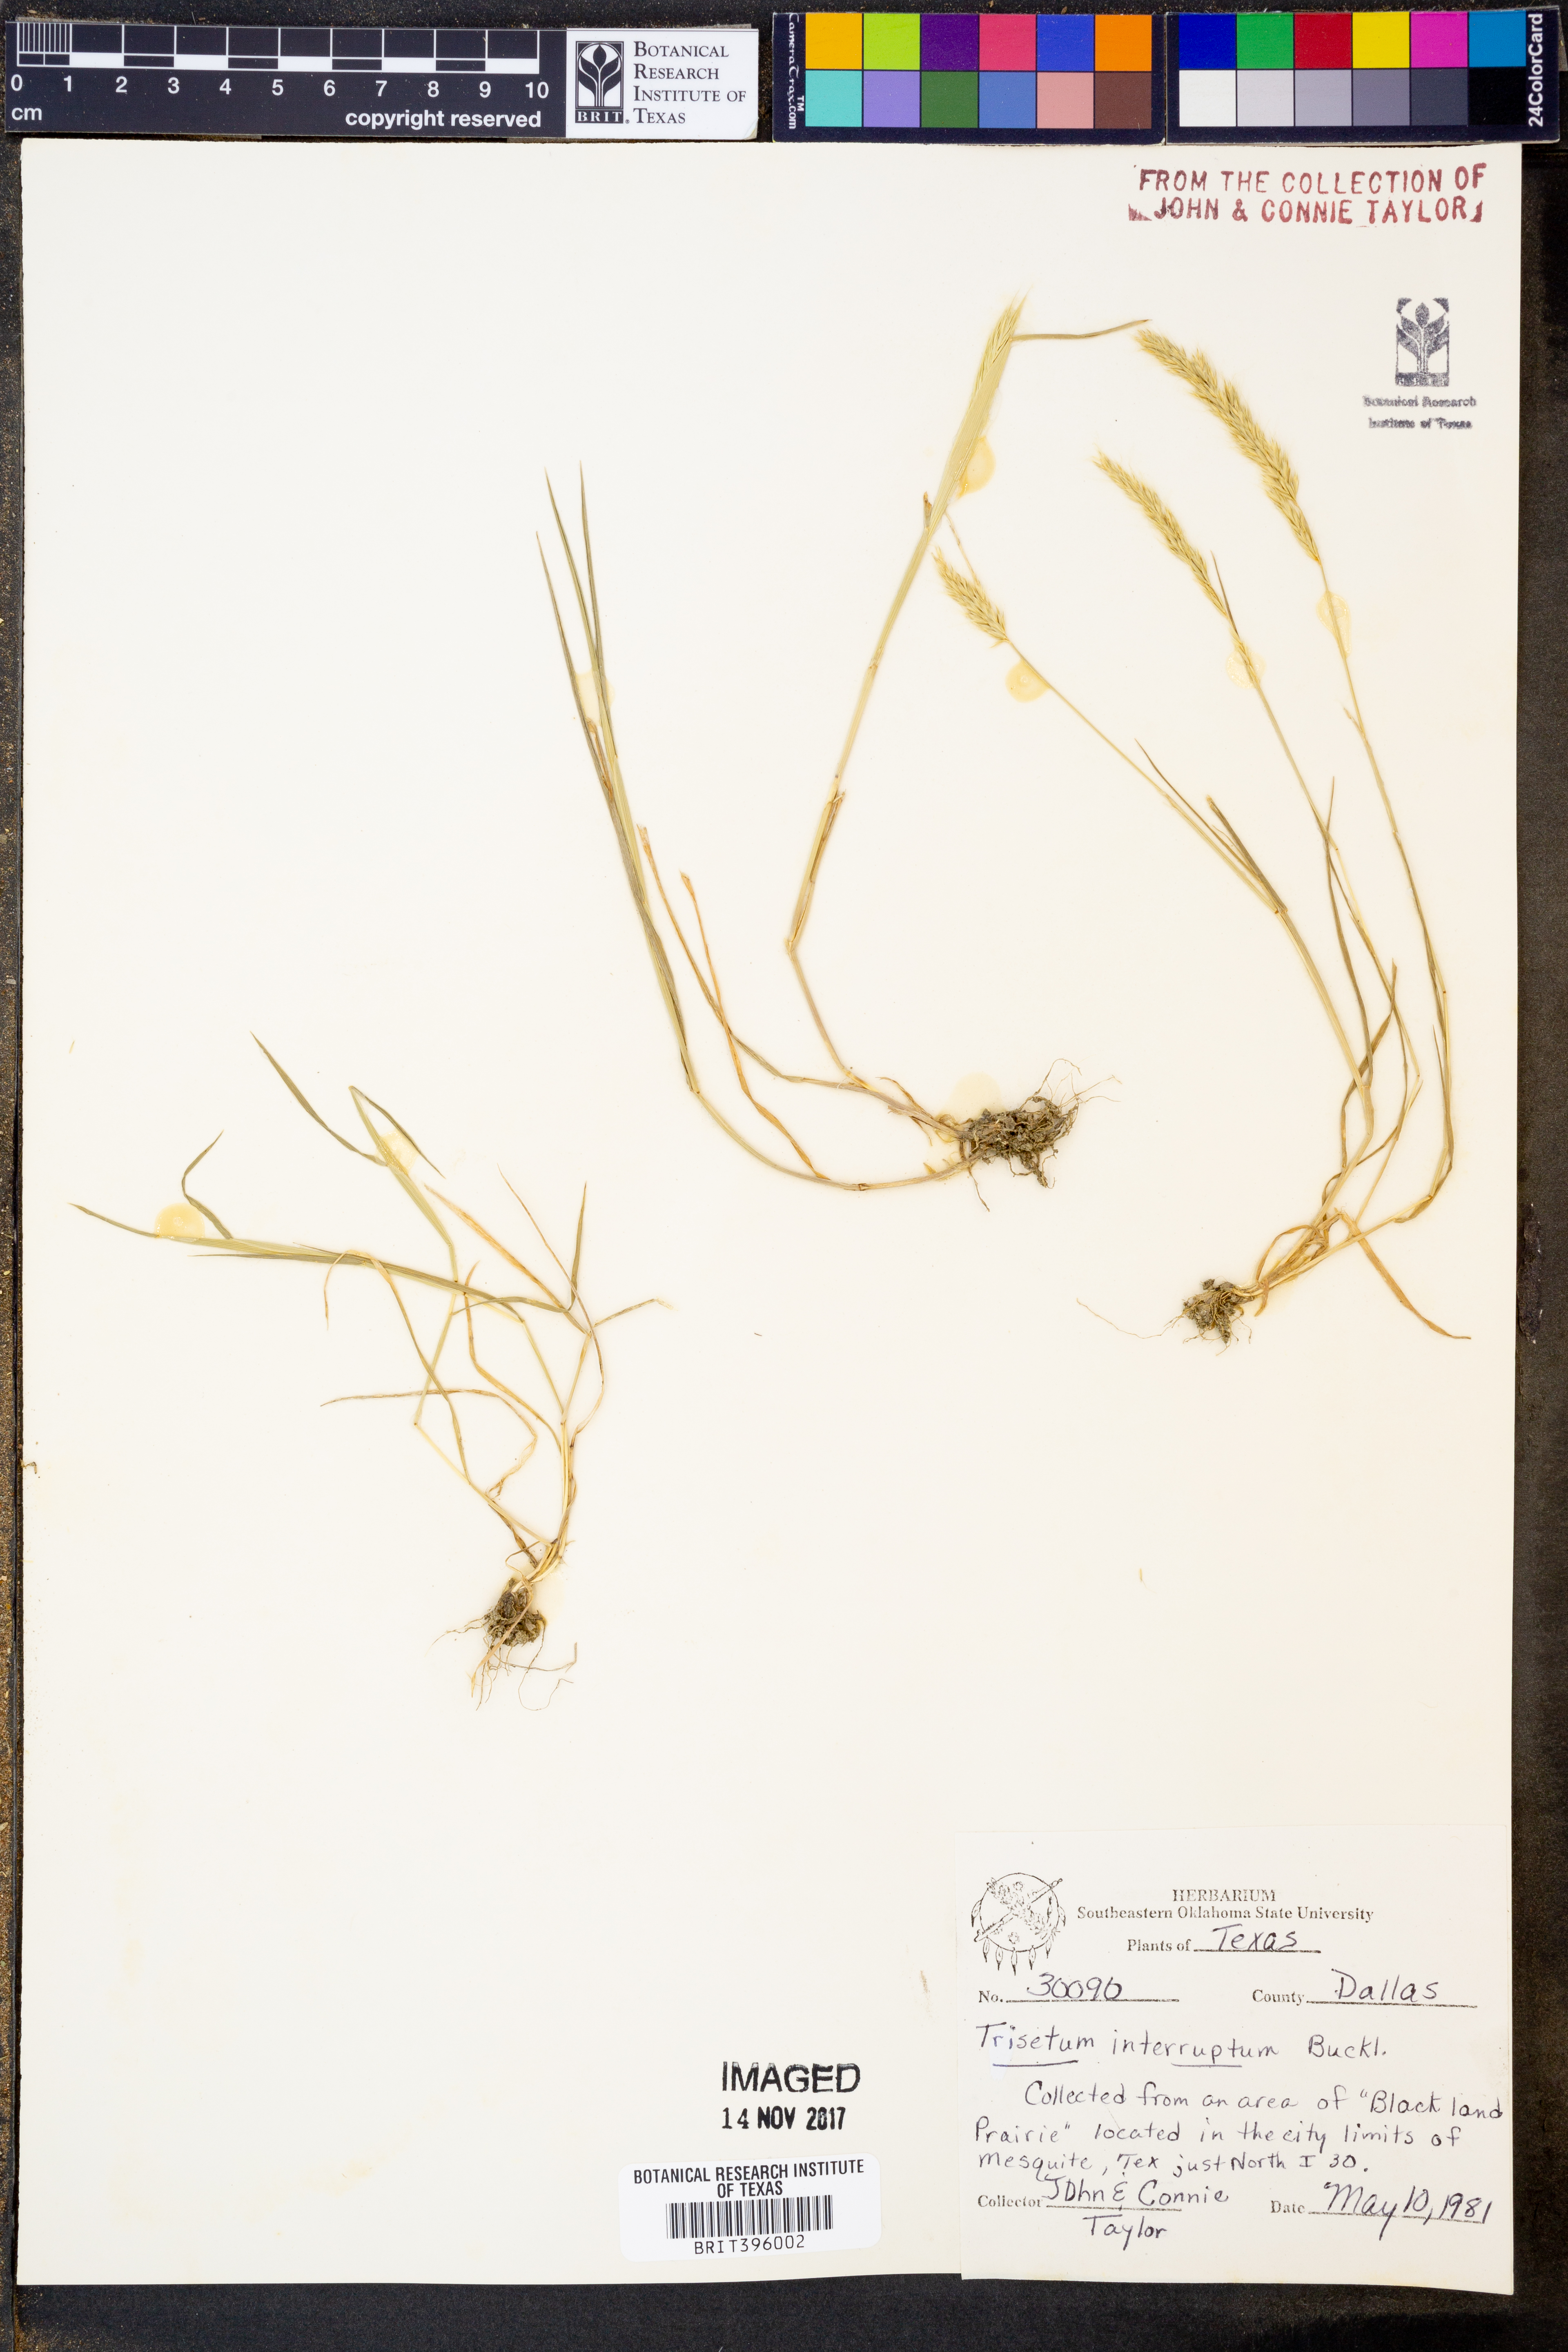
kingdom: Plantae
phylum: Tracheophyta
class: Liliopsida
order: Poales
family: Poaceae
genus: Sphenopholis
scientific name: Sphenopholis interrupta
